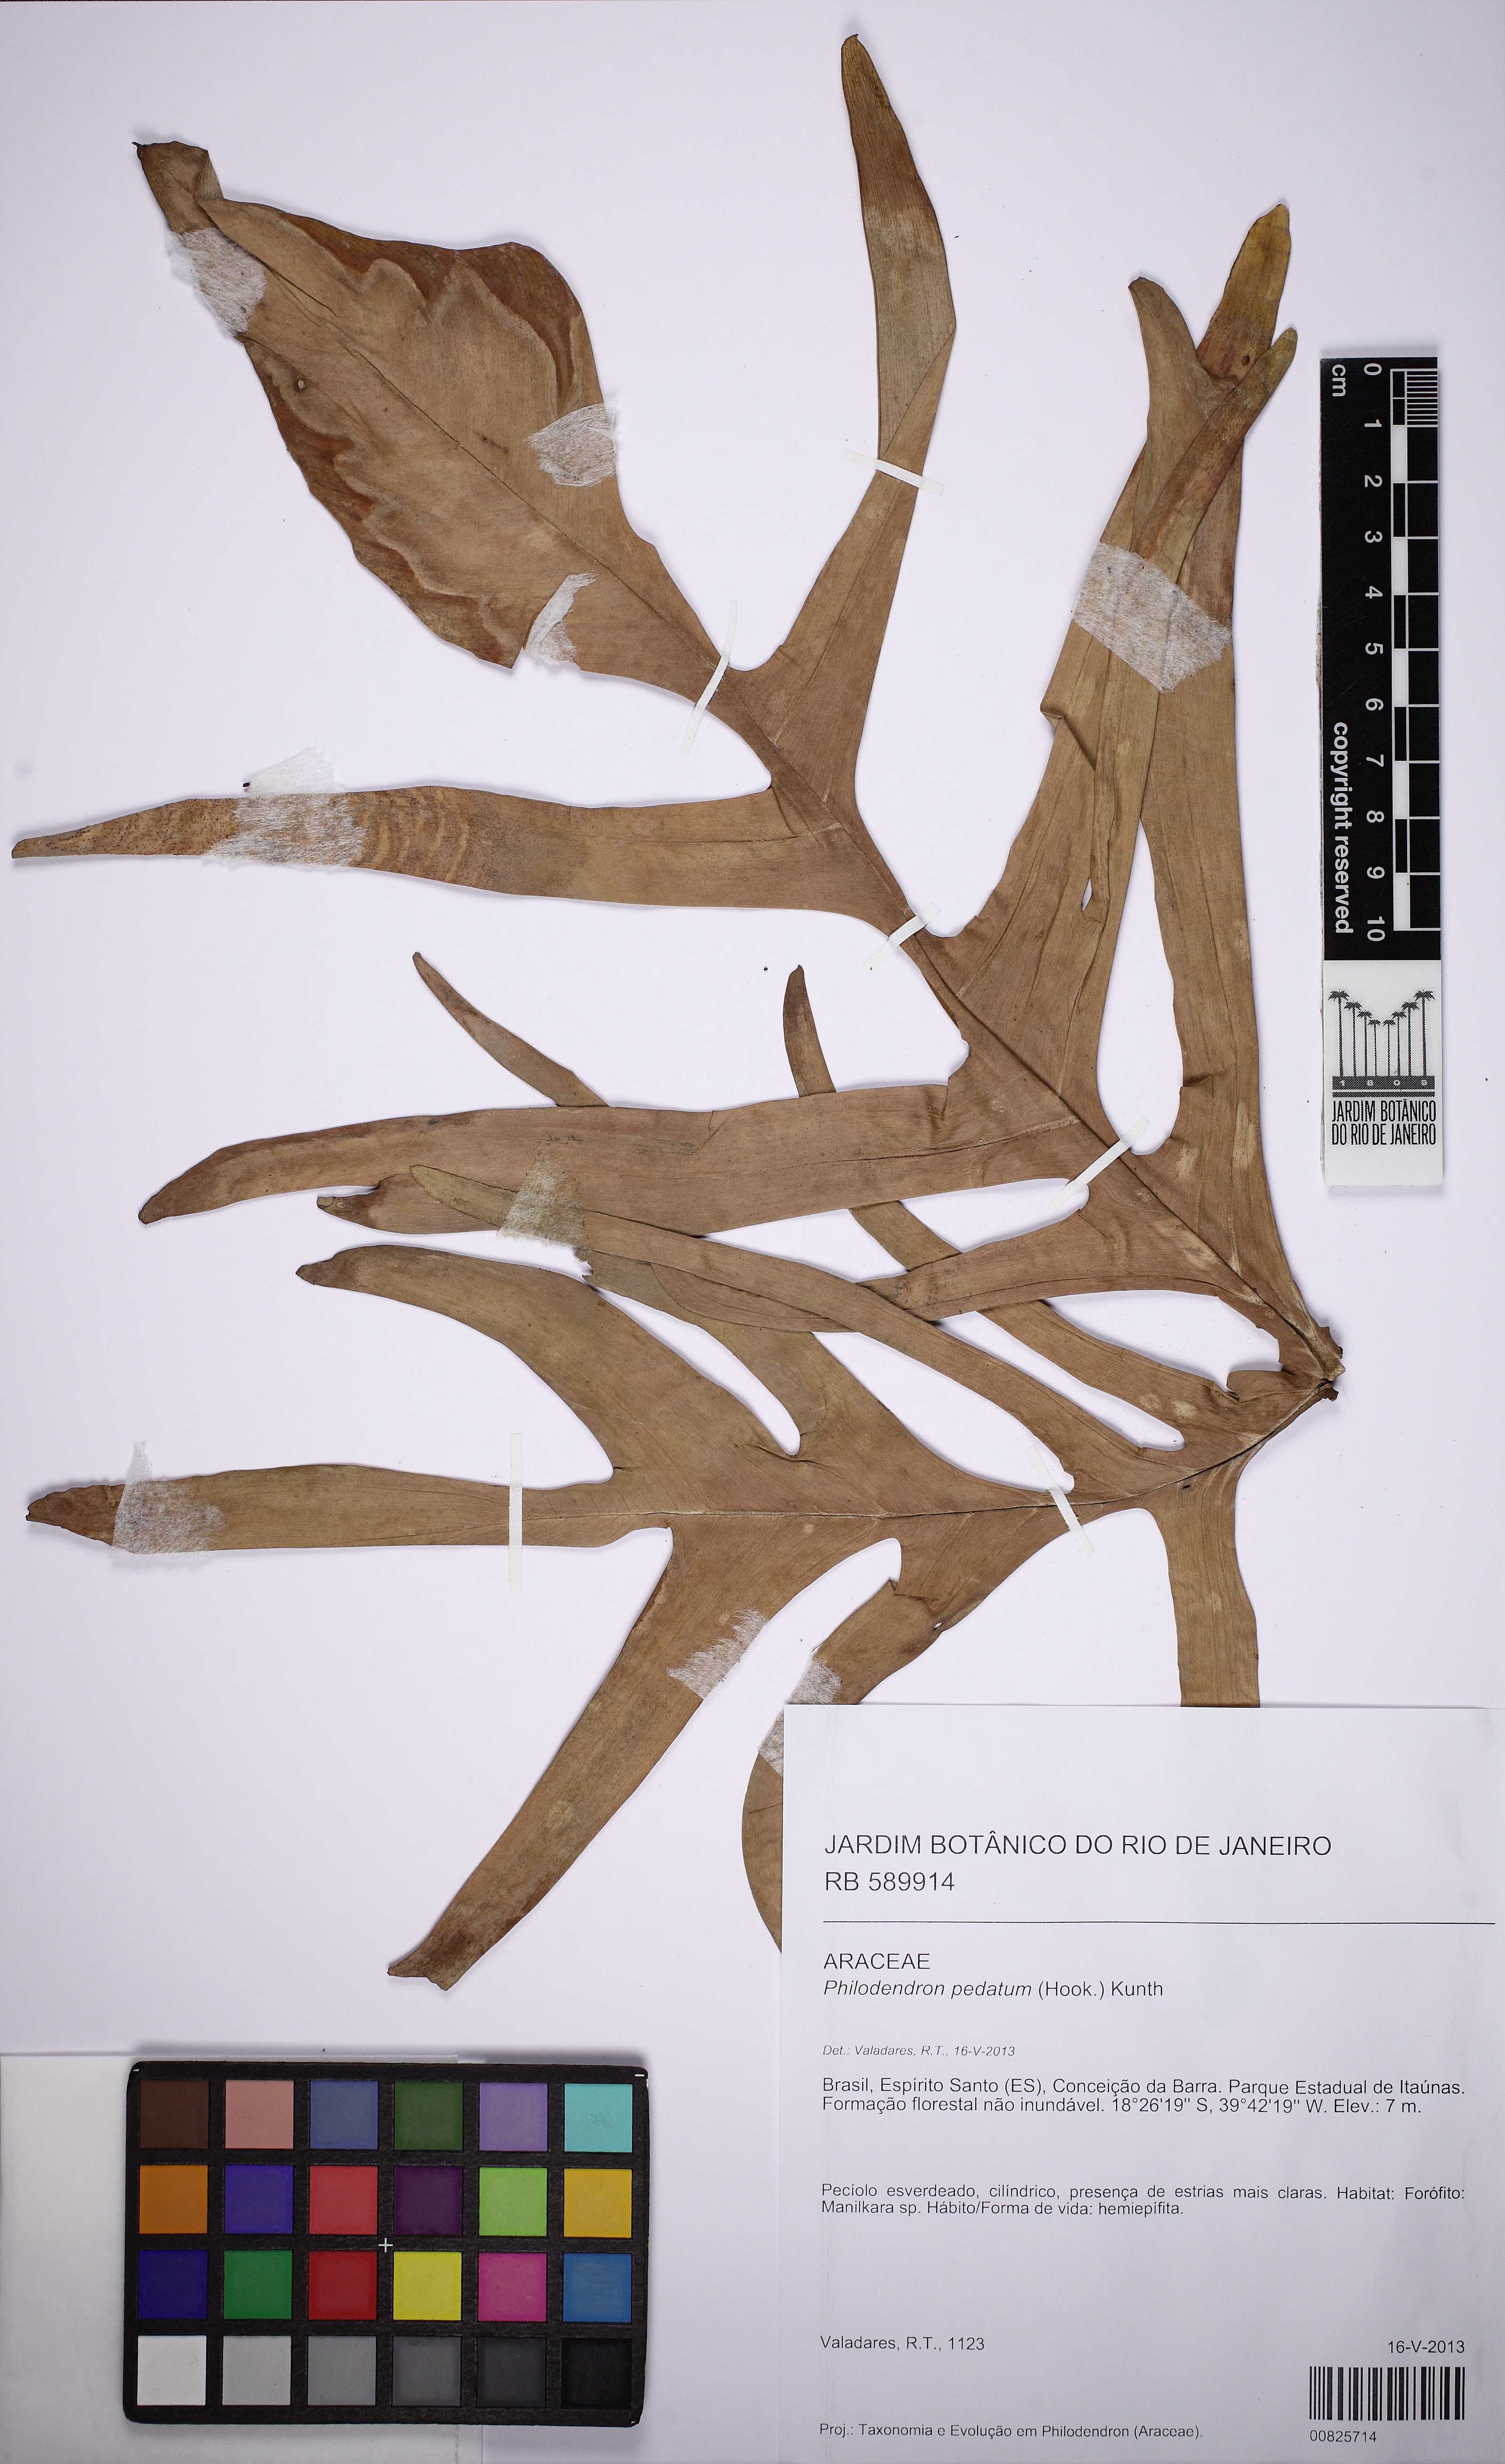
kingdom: Plantae
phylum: Tracheophyta
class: Liliopsida
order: Alismatales
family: Araceae
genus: Philodendron
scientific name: Philodendron pedatum
